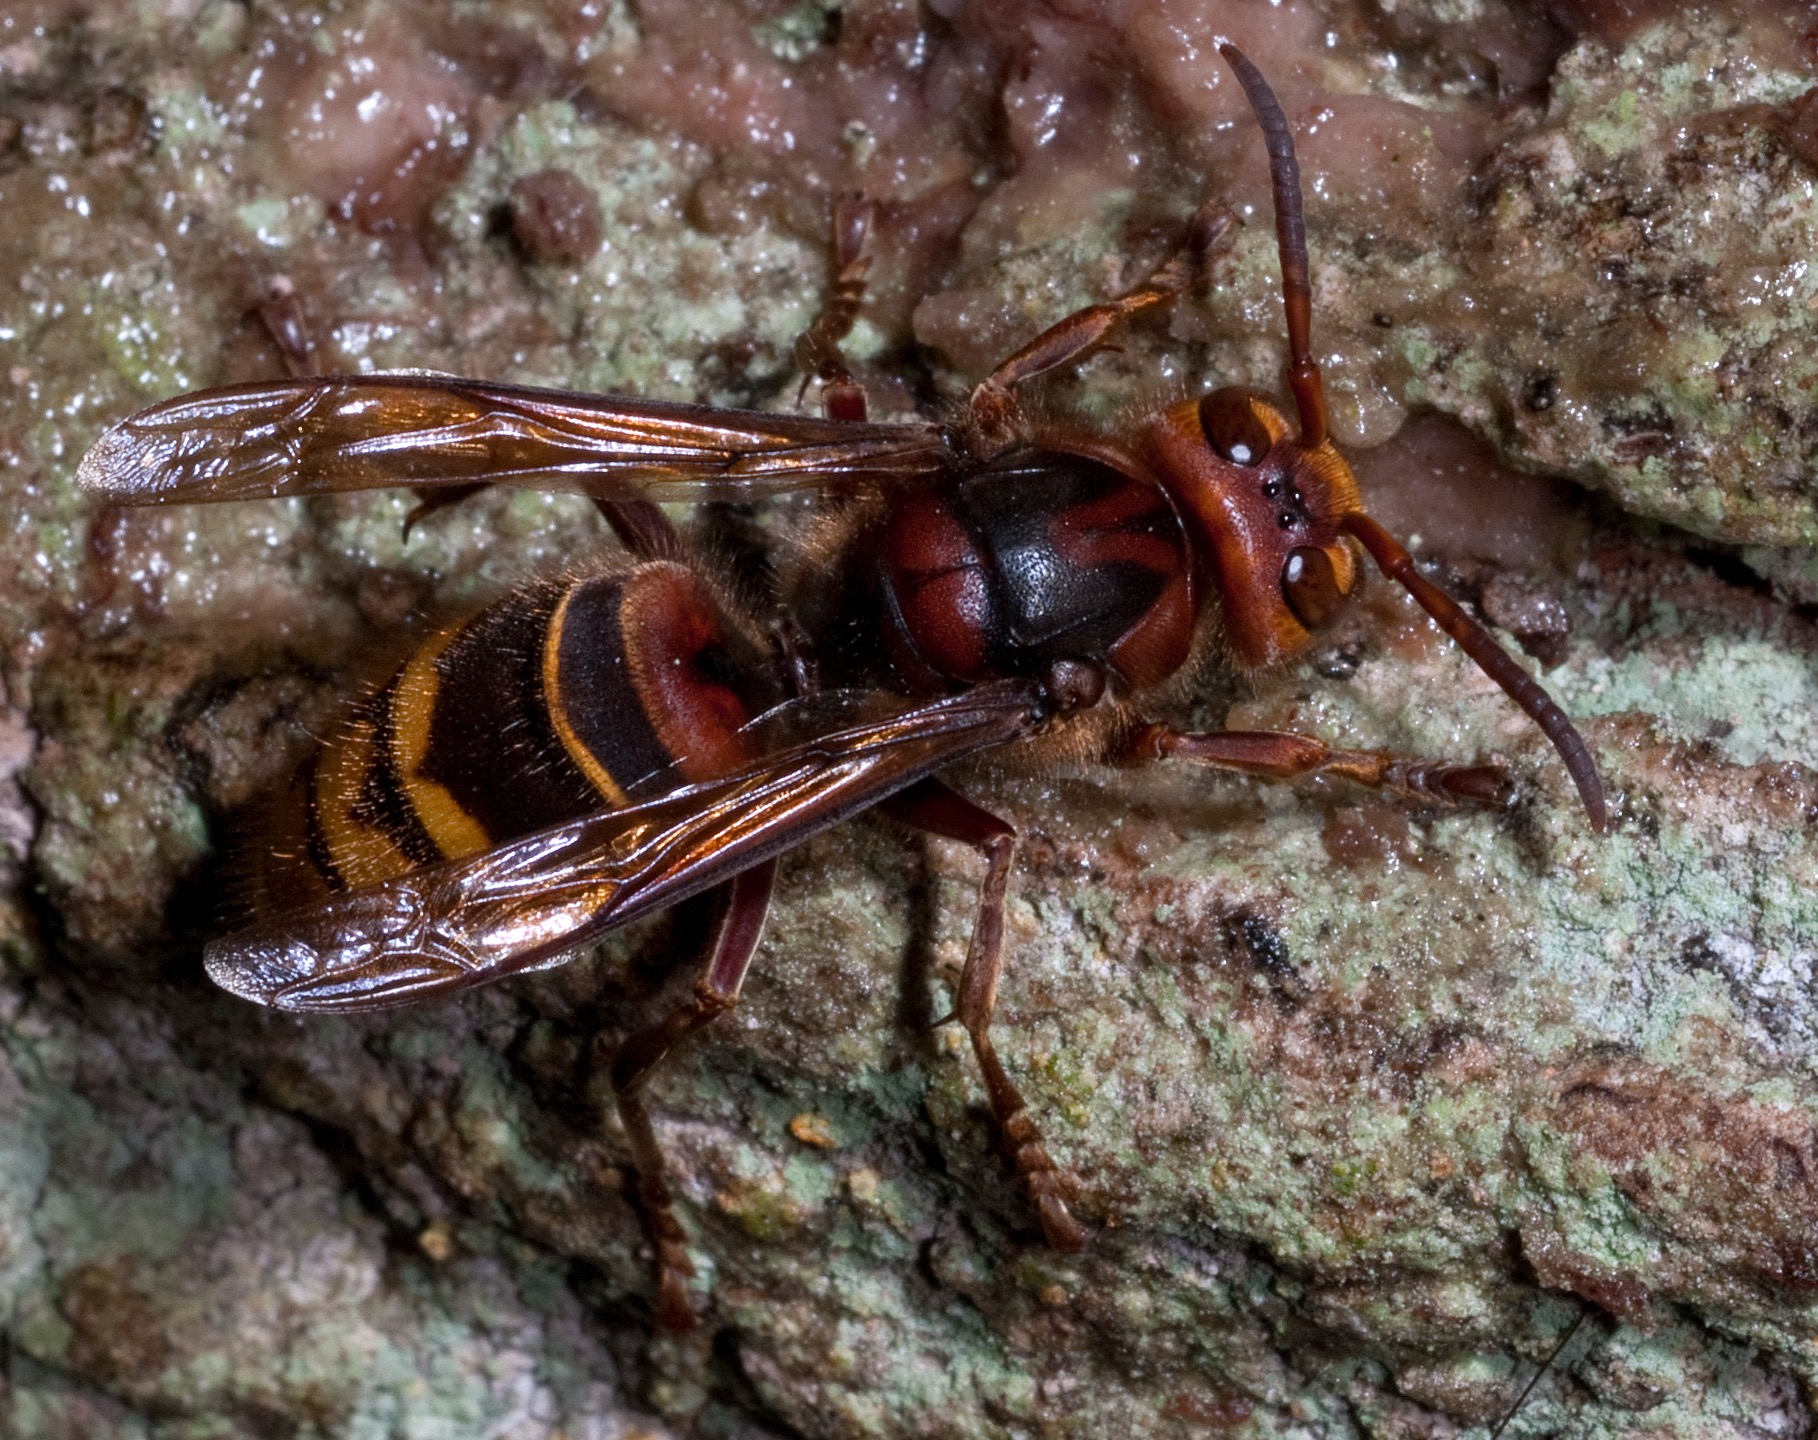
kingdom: Animalia
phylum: Arthropoda
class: Insecta
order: Hymenoptera
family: Vespidae
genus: Vespa
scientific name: Vespa crabro
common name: Stor gedehams
